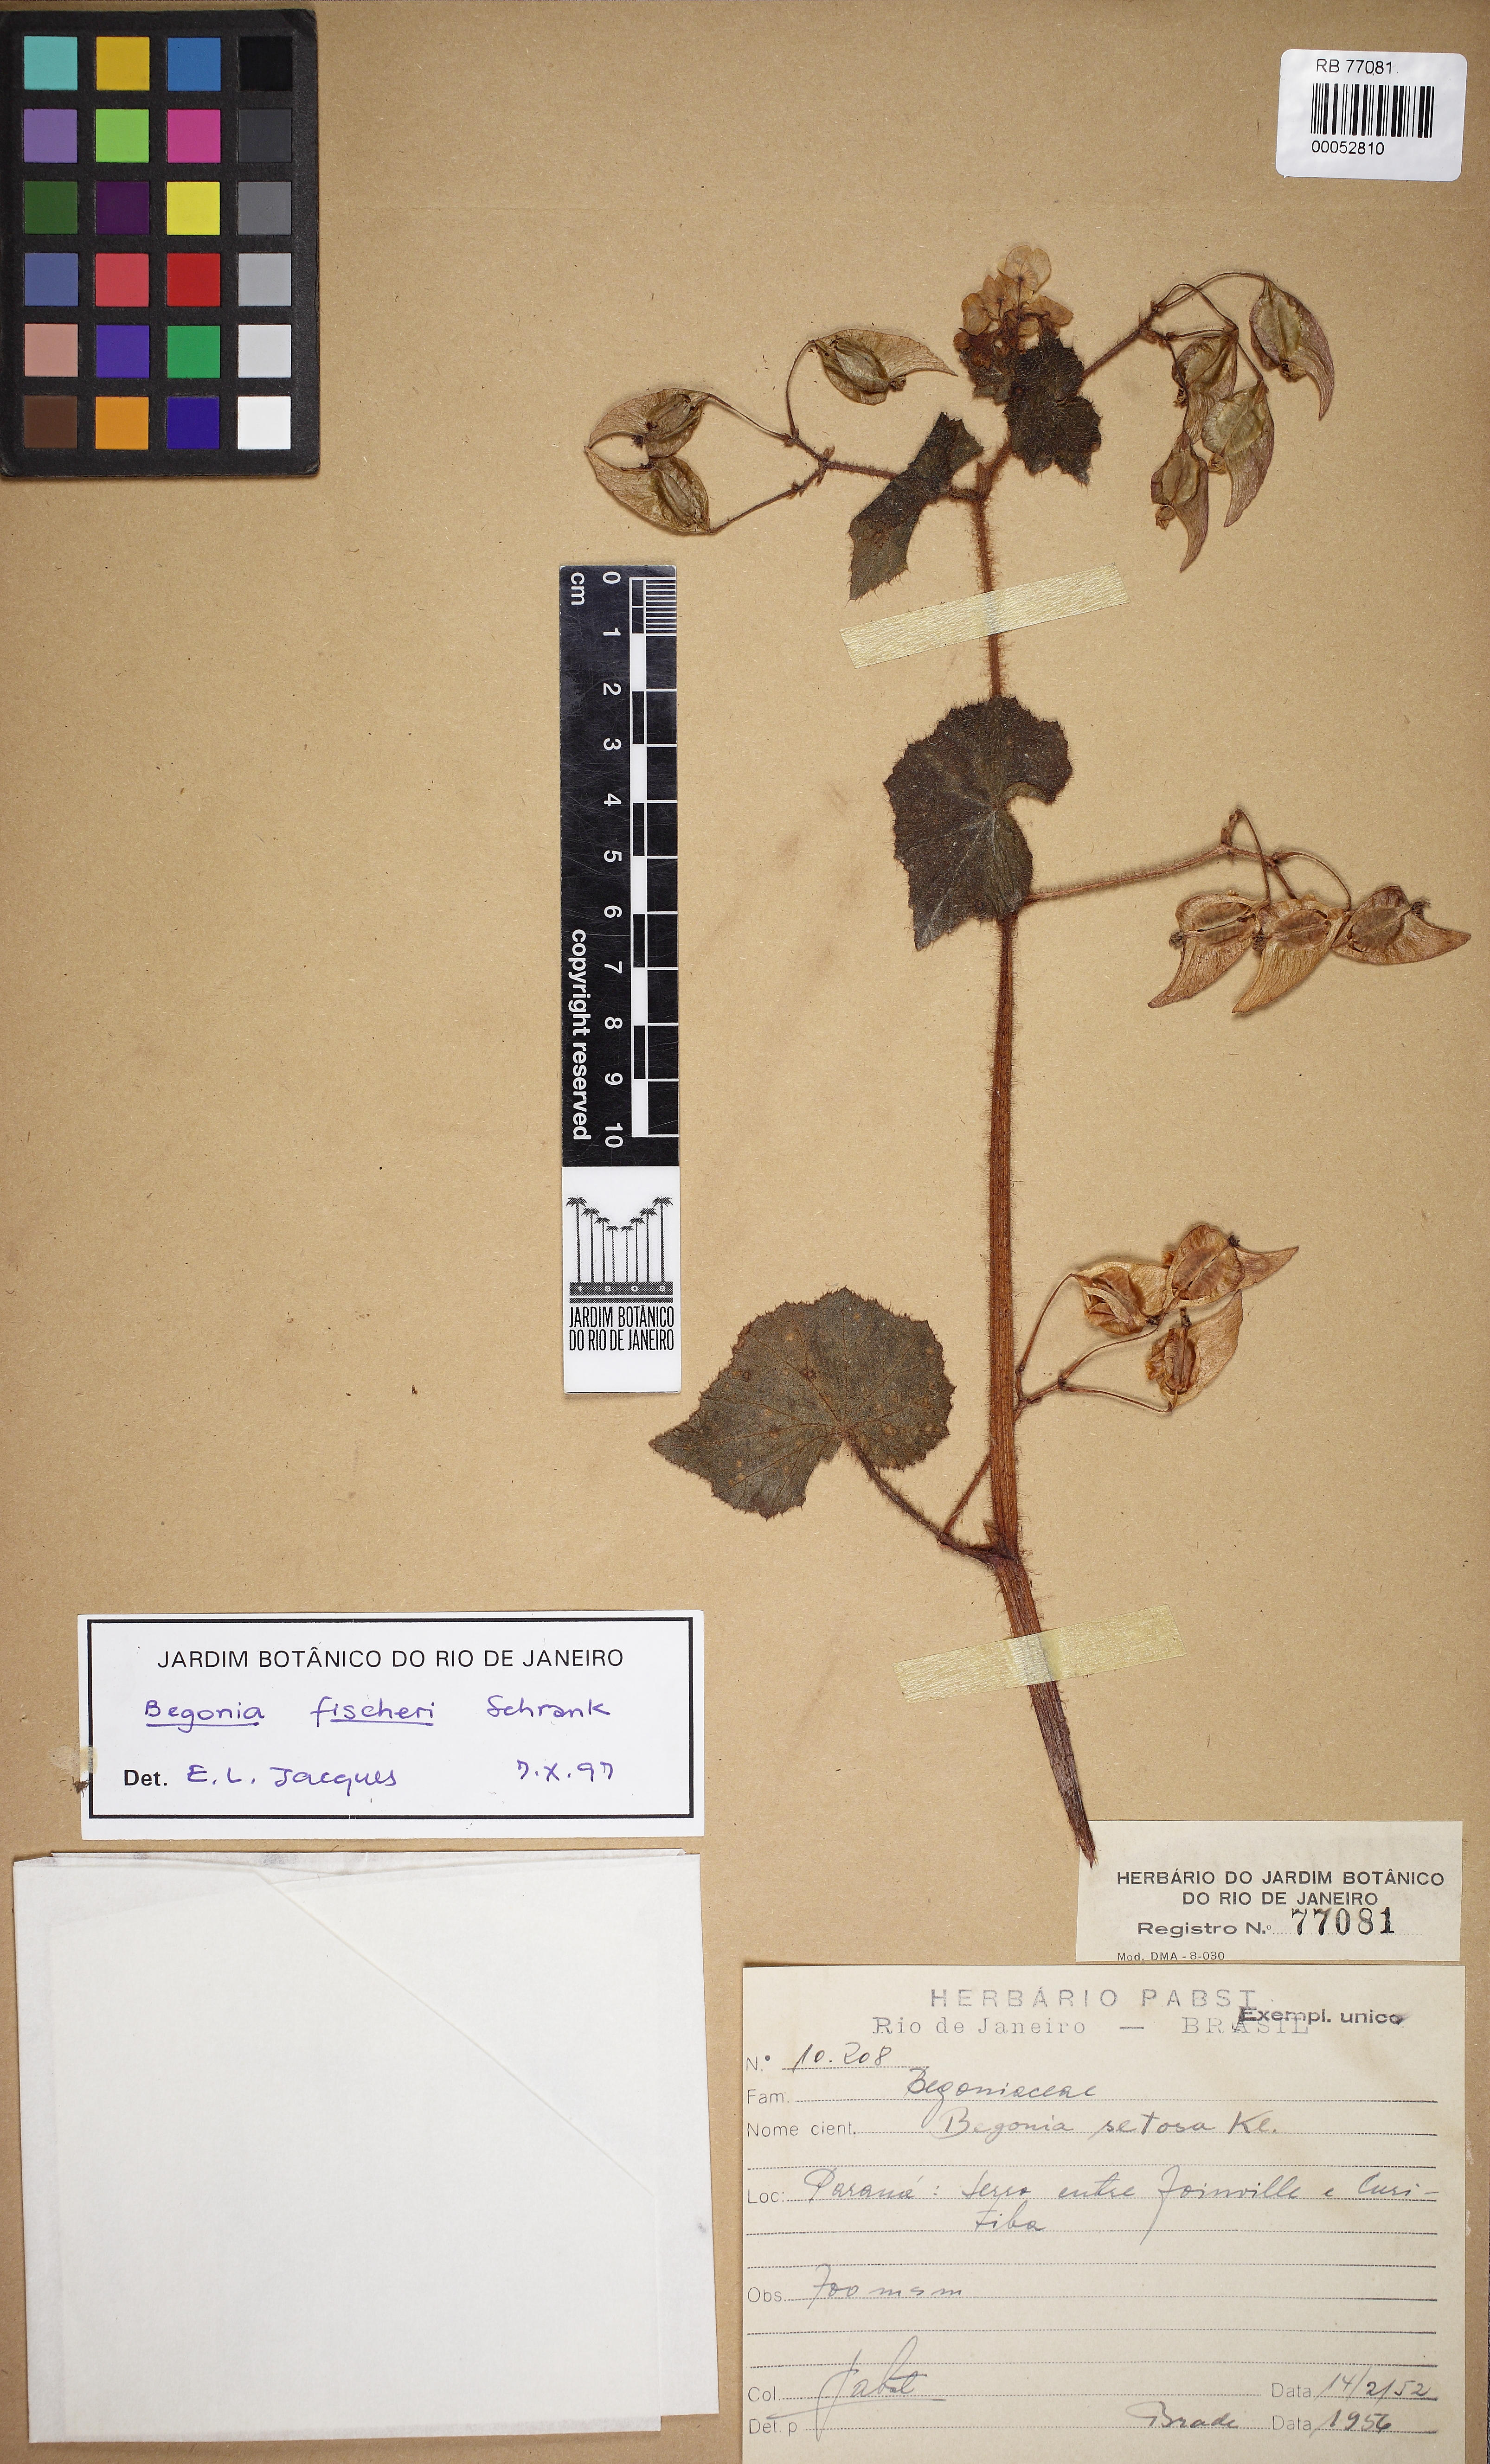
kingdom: Plantae
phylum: Tracheophyta
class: Magnoliopsida
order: Cucurbitales
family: Begoniaceae
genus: Begonia
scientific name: Begonia fischeri
